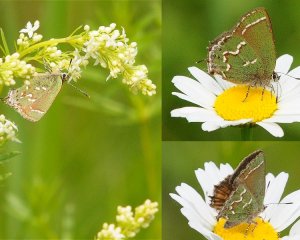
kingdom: Animalia
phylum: Arthropoda
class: Insecta
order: Lepidoptera
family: Lycaenidae
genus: Mitoura
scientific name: Mitoura gryneus
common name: Juniper Hairstreak
